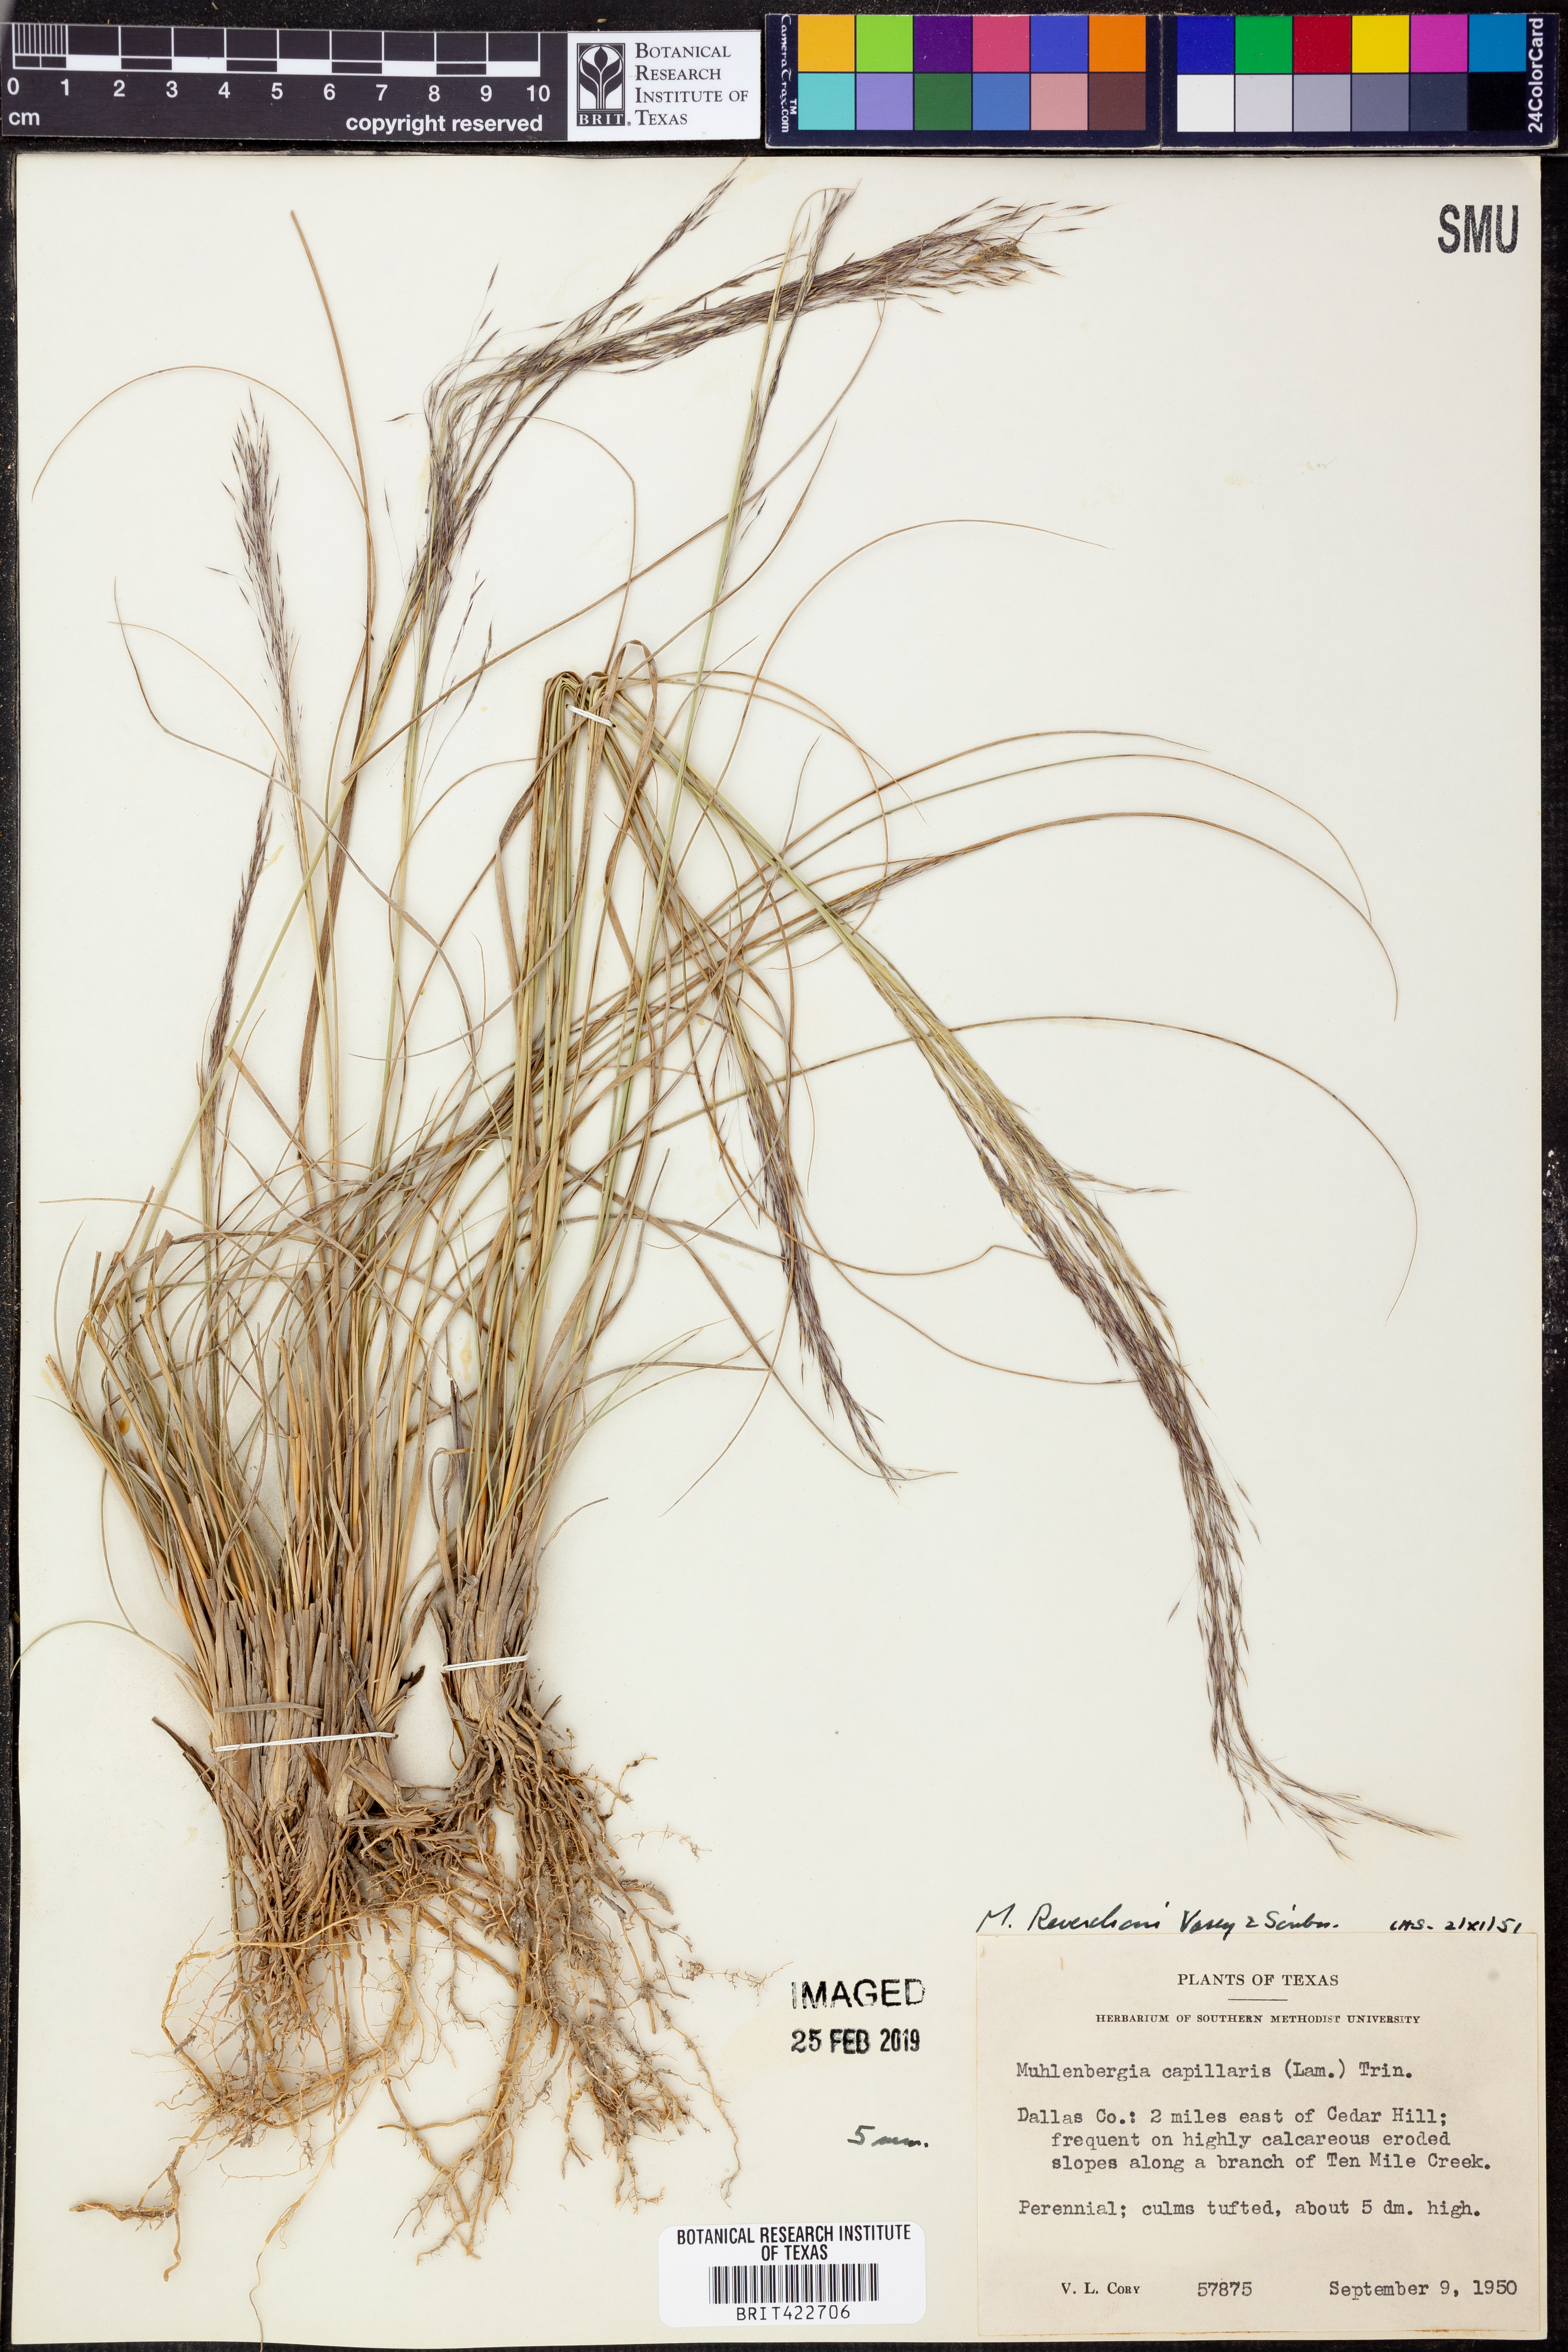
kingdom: Plantae
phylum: Tracheophyta
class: Liliopsida
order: Poales
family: Poaceae
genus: Muhlenbergia
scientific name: Muhlenbergia reverchonii
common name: Seep muhly
